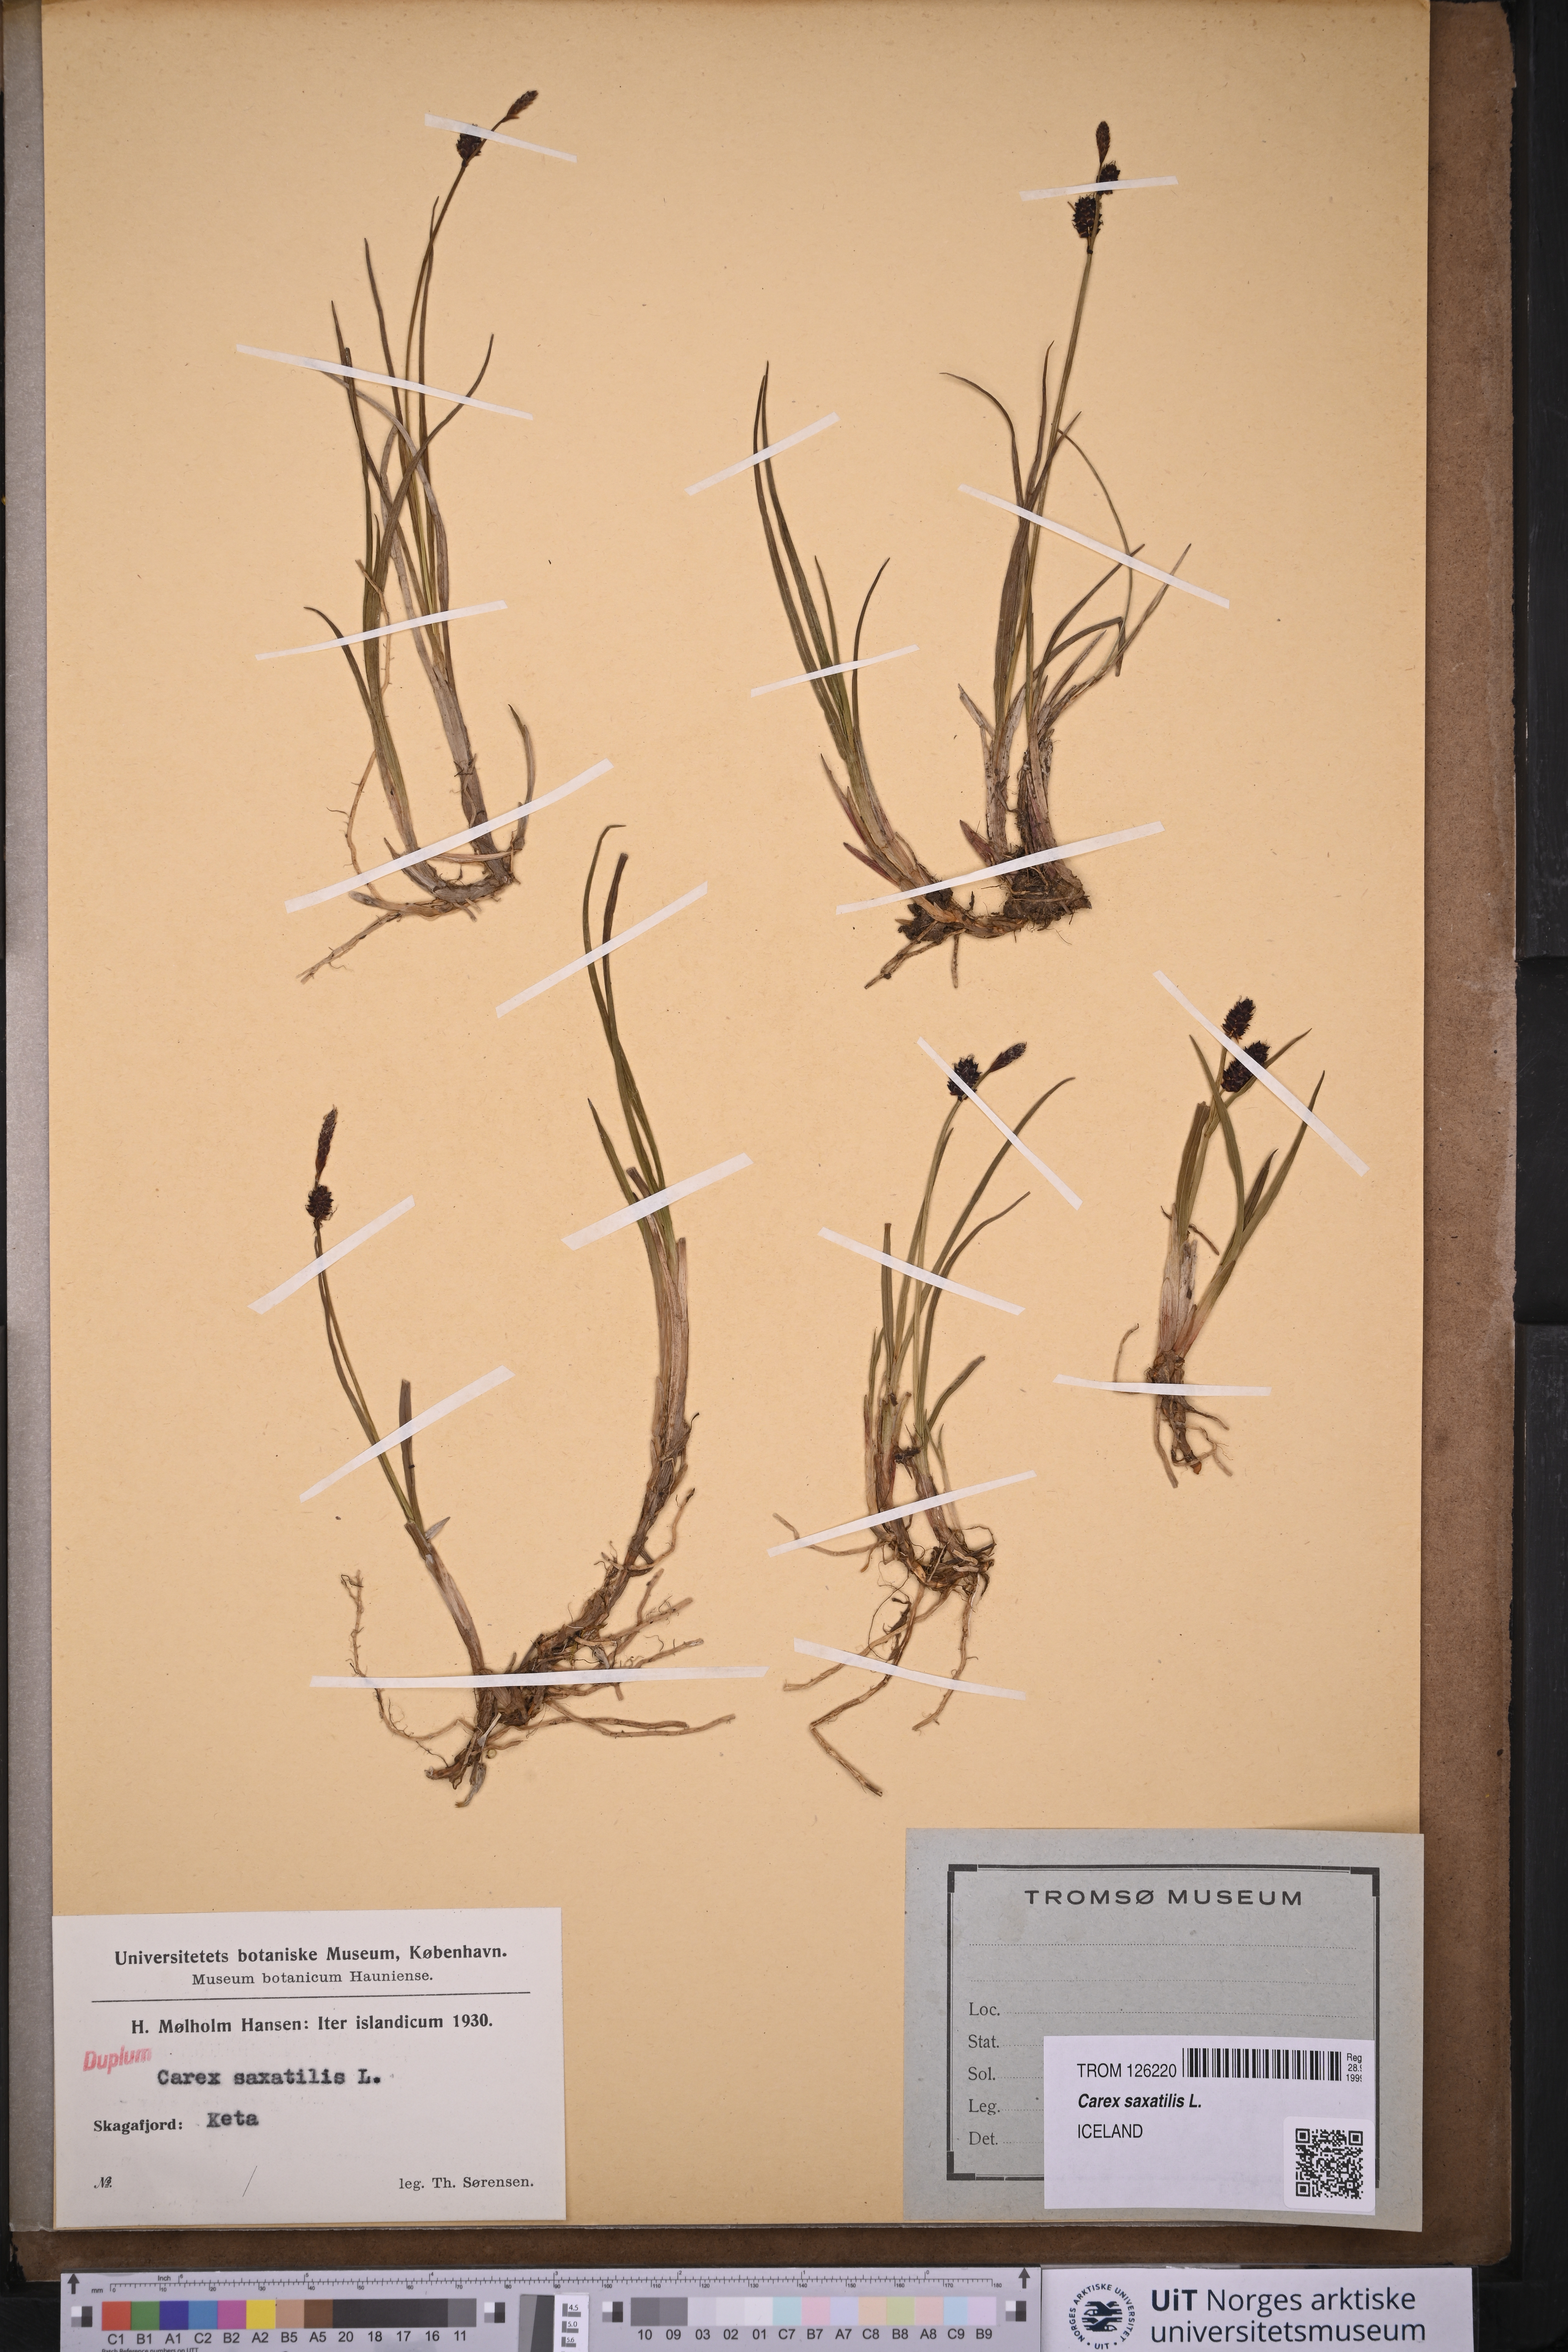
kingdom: Plantae
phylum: Tracheophyta
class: Liliopsida
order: Poales
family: Cyperaceae
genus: Carex
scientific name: Carex saxatilis
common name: Russet sedge
